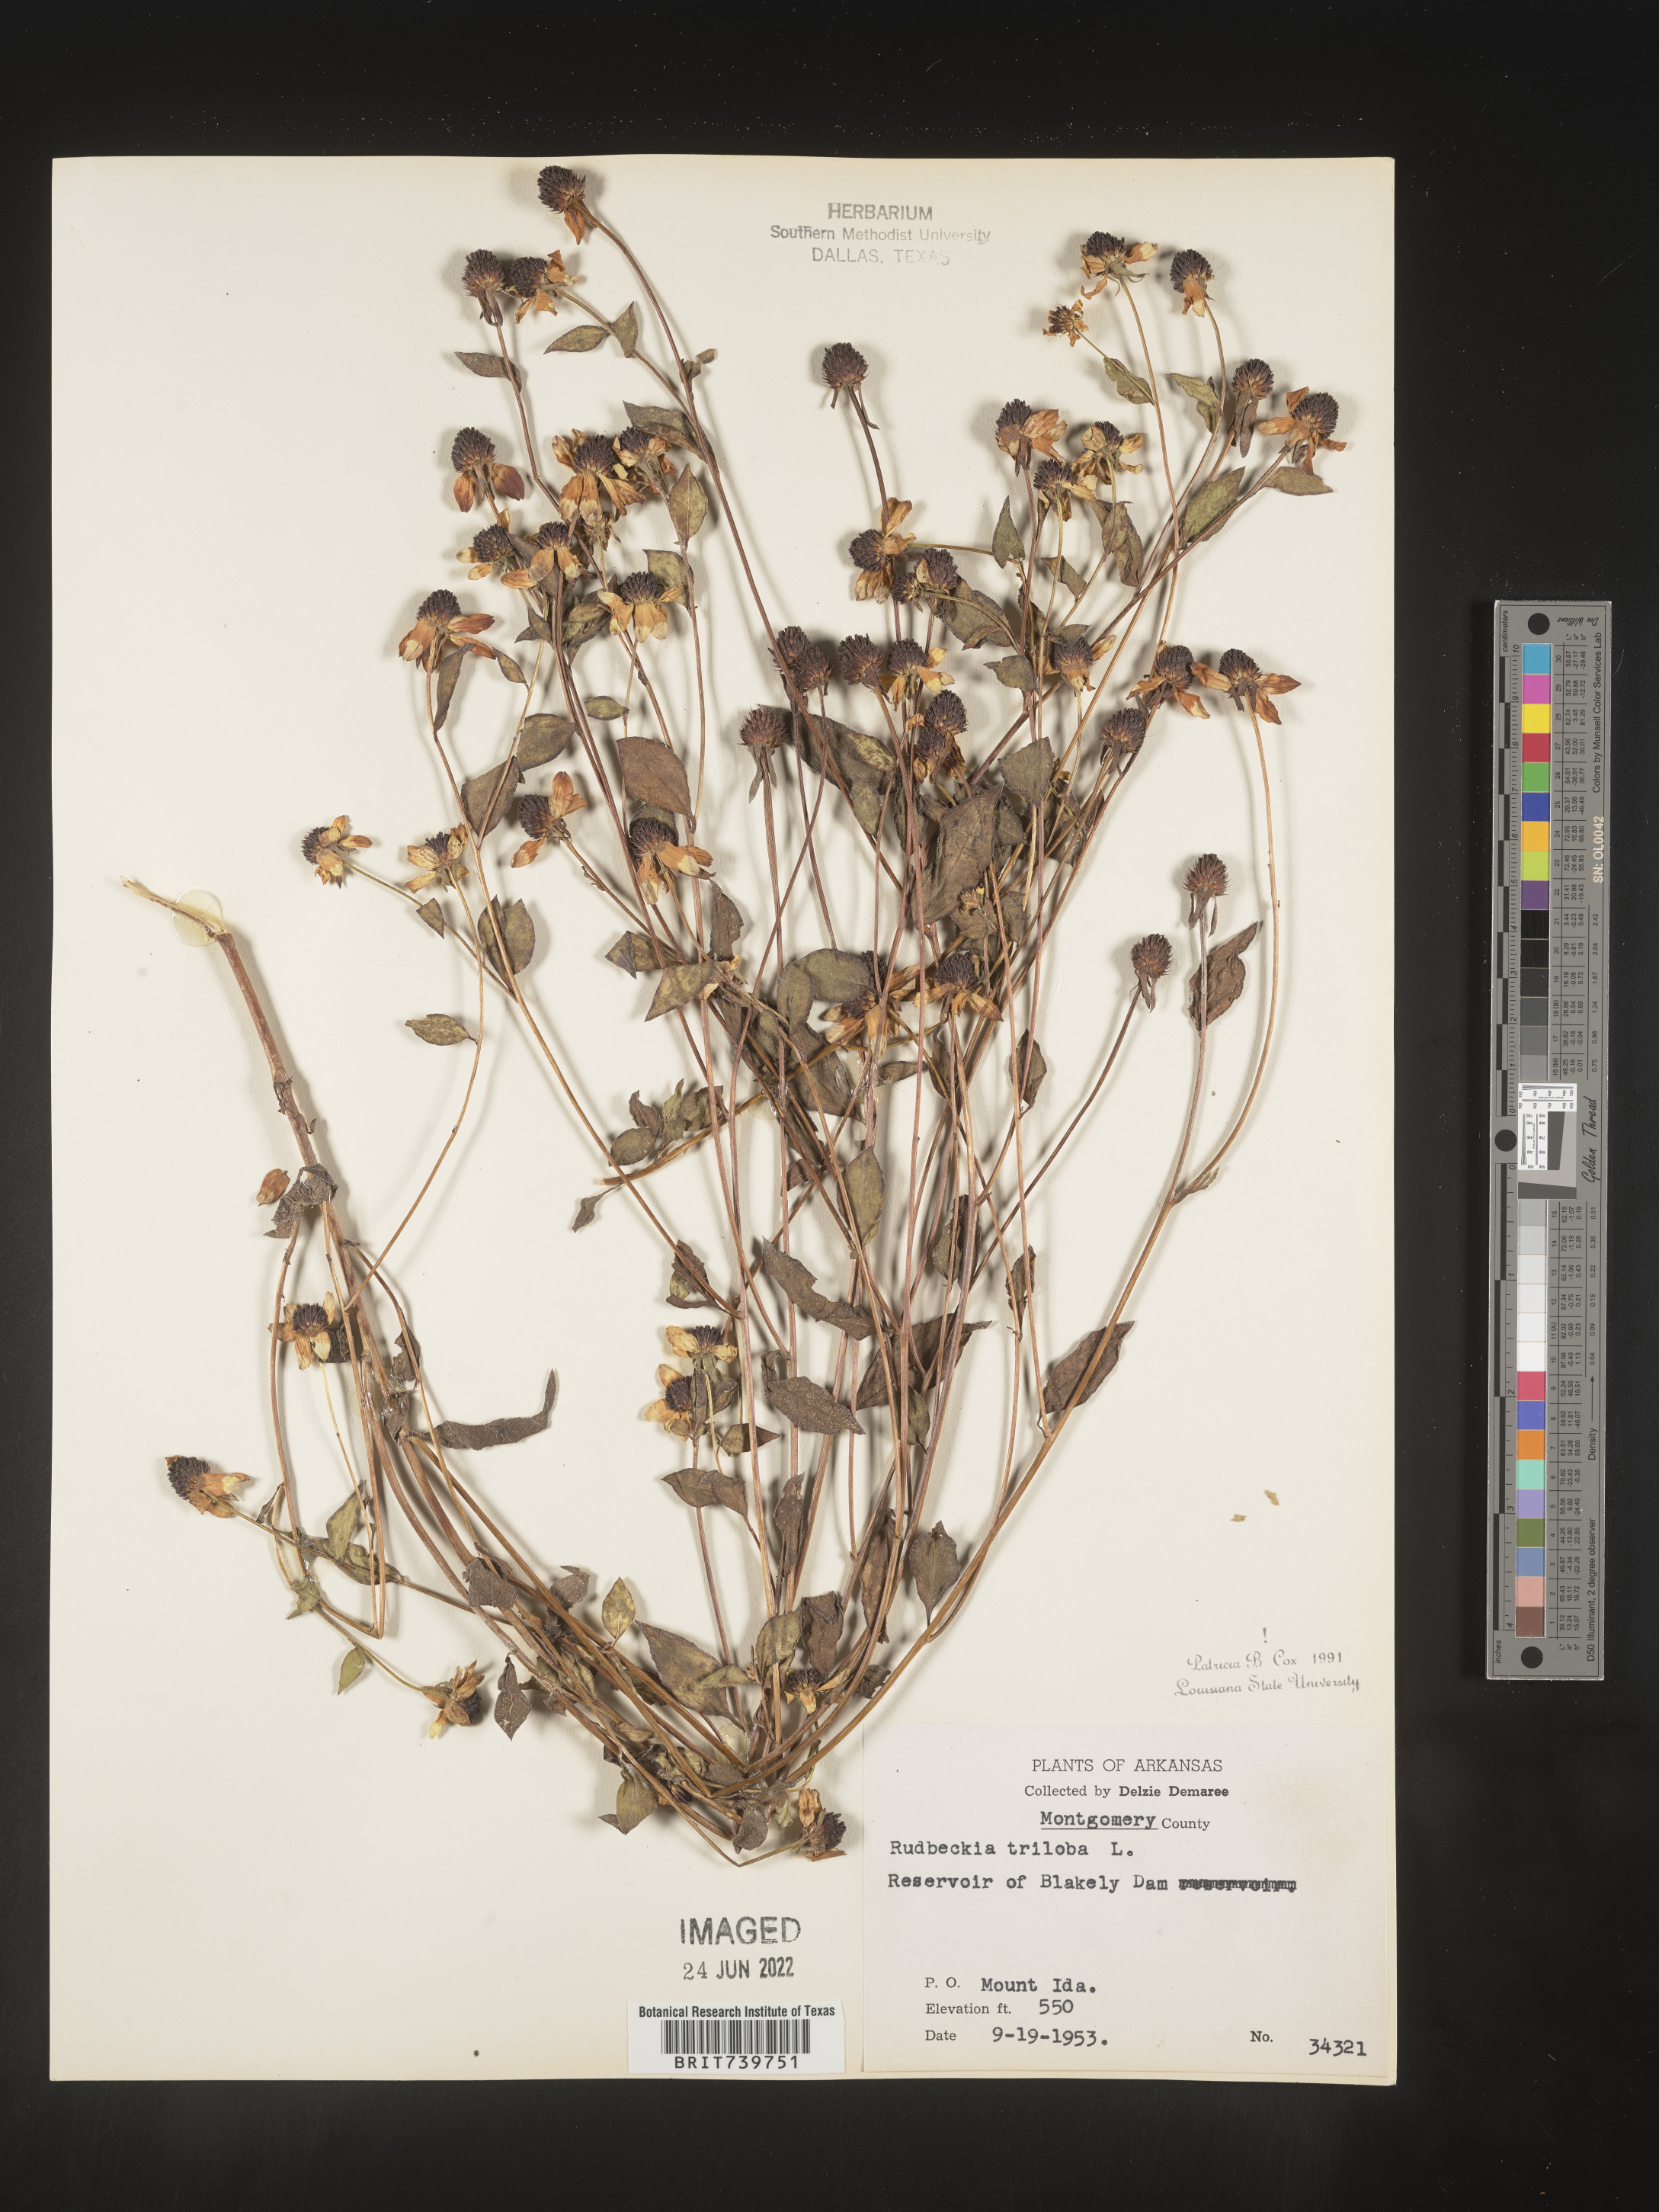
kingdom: Plantae
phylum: Tracheophyta
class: Magnoliopsida
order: Asterales
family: Asteraceae
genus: Rudbeckia
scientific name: Rudbeckia triloba
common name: Thin-leaved coneflower
